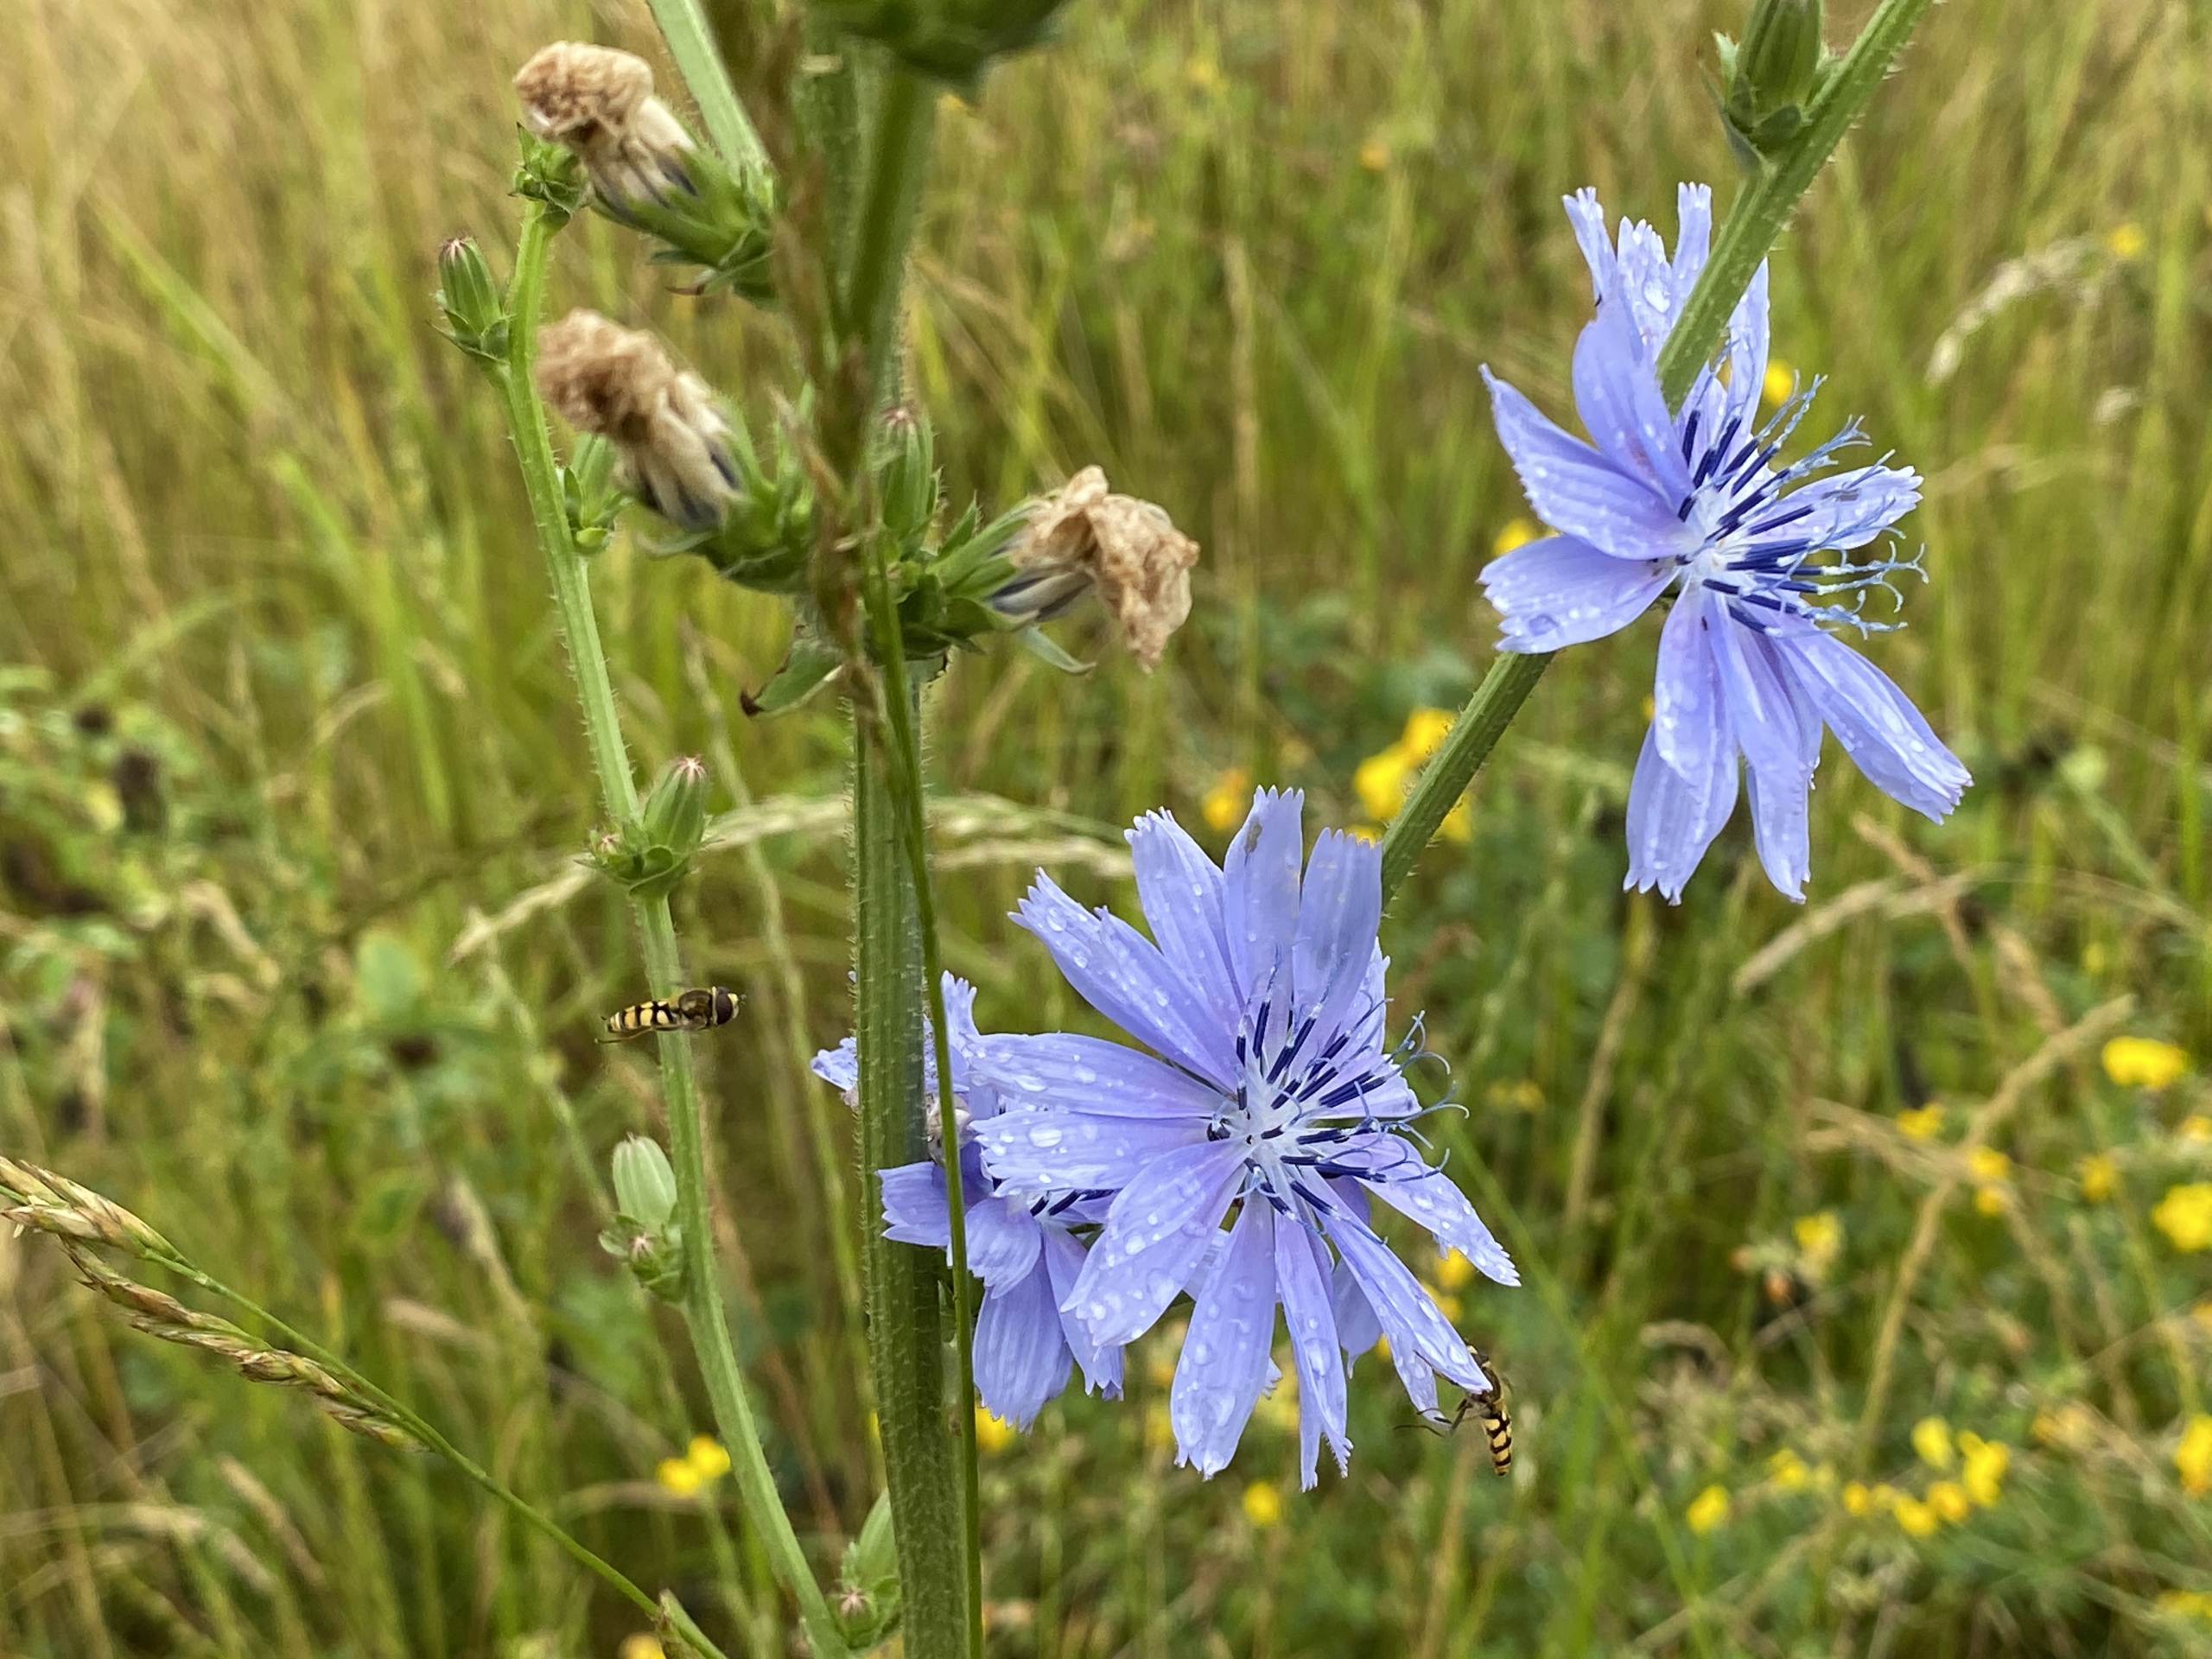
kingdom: Plantae
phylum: Tracheophyta
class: Magnoliopsida
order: Asterales
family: Asteraceae
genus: Cichorium
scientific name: Cichorium intybus
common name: Cikorie
